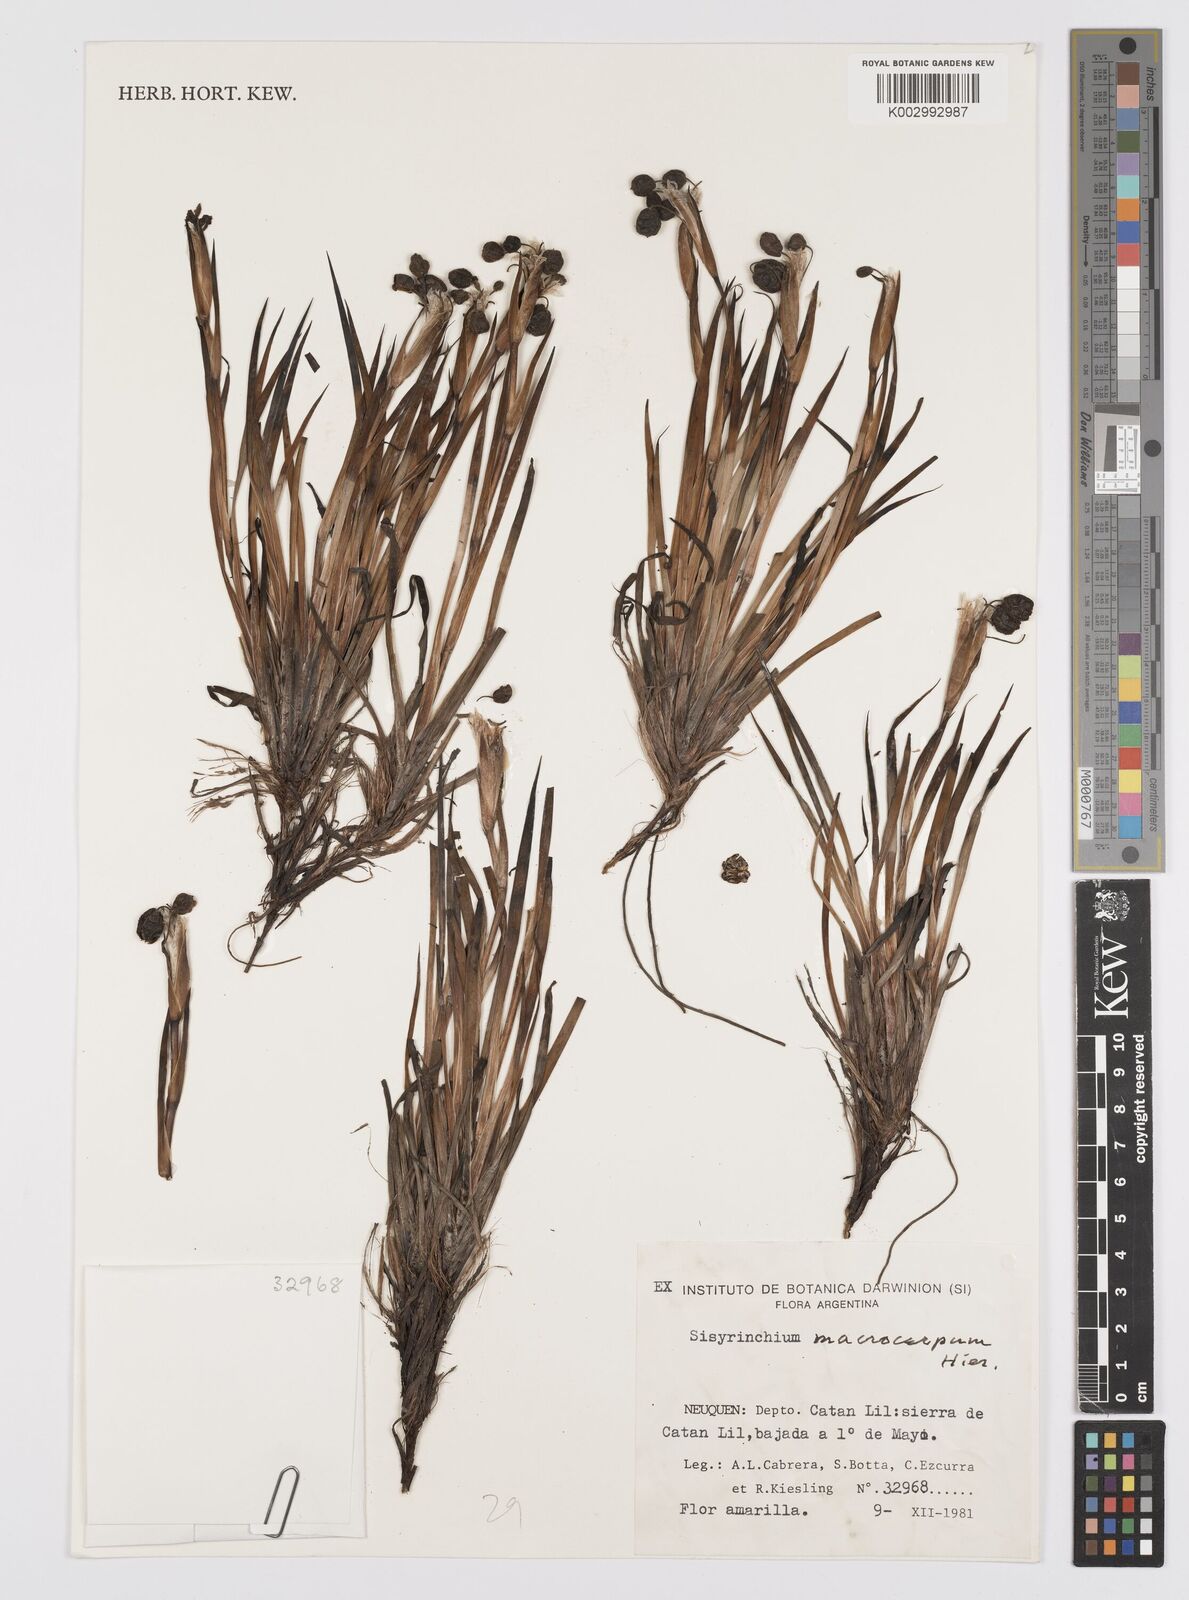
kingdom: Plantae
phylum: Tracheophyta
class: Liliopsida
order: Asparagales
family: Iridaceae
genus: Sisyrinchium
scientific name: Sisyrinchium macrocarpum
